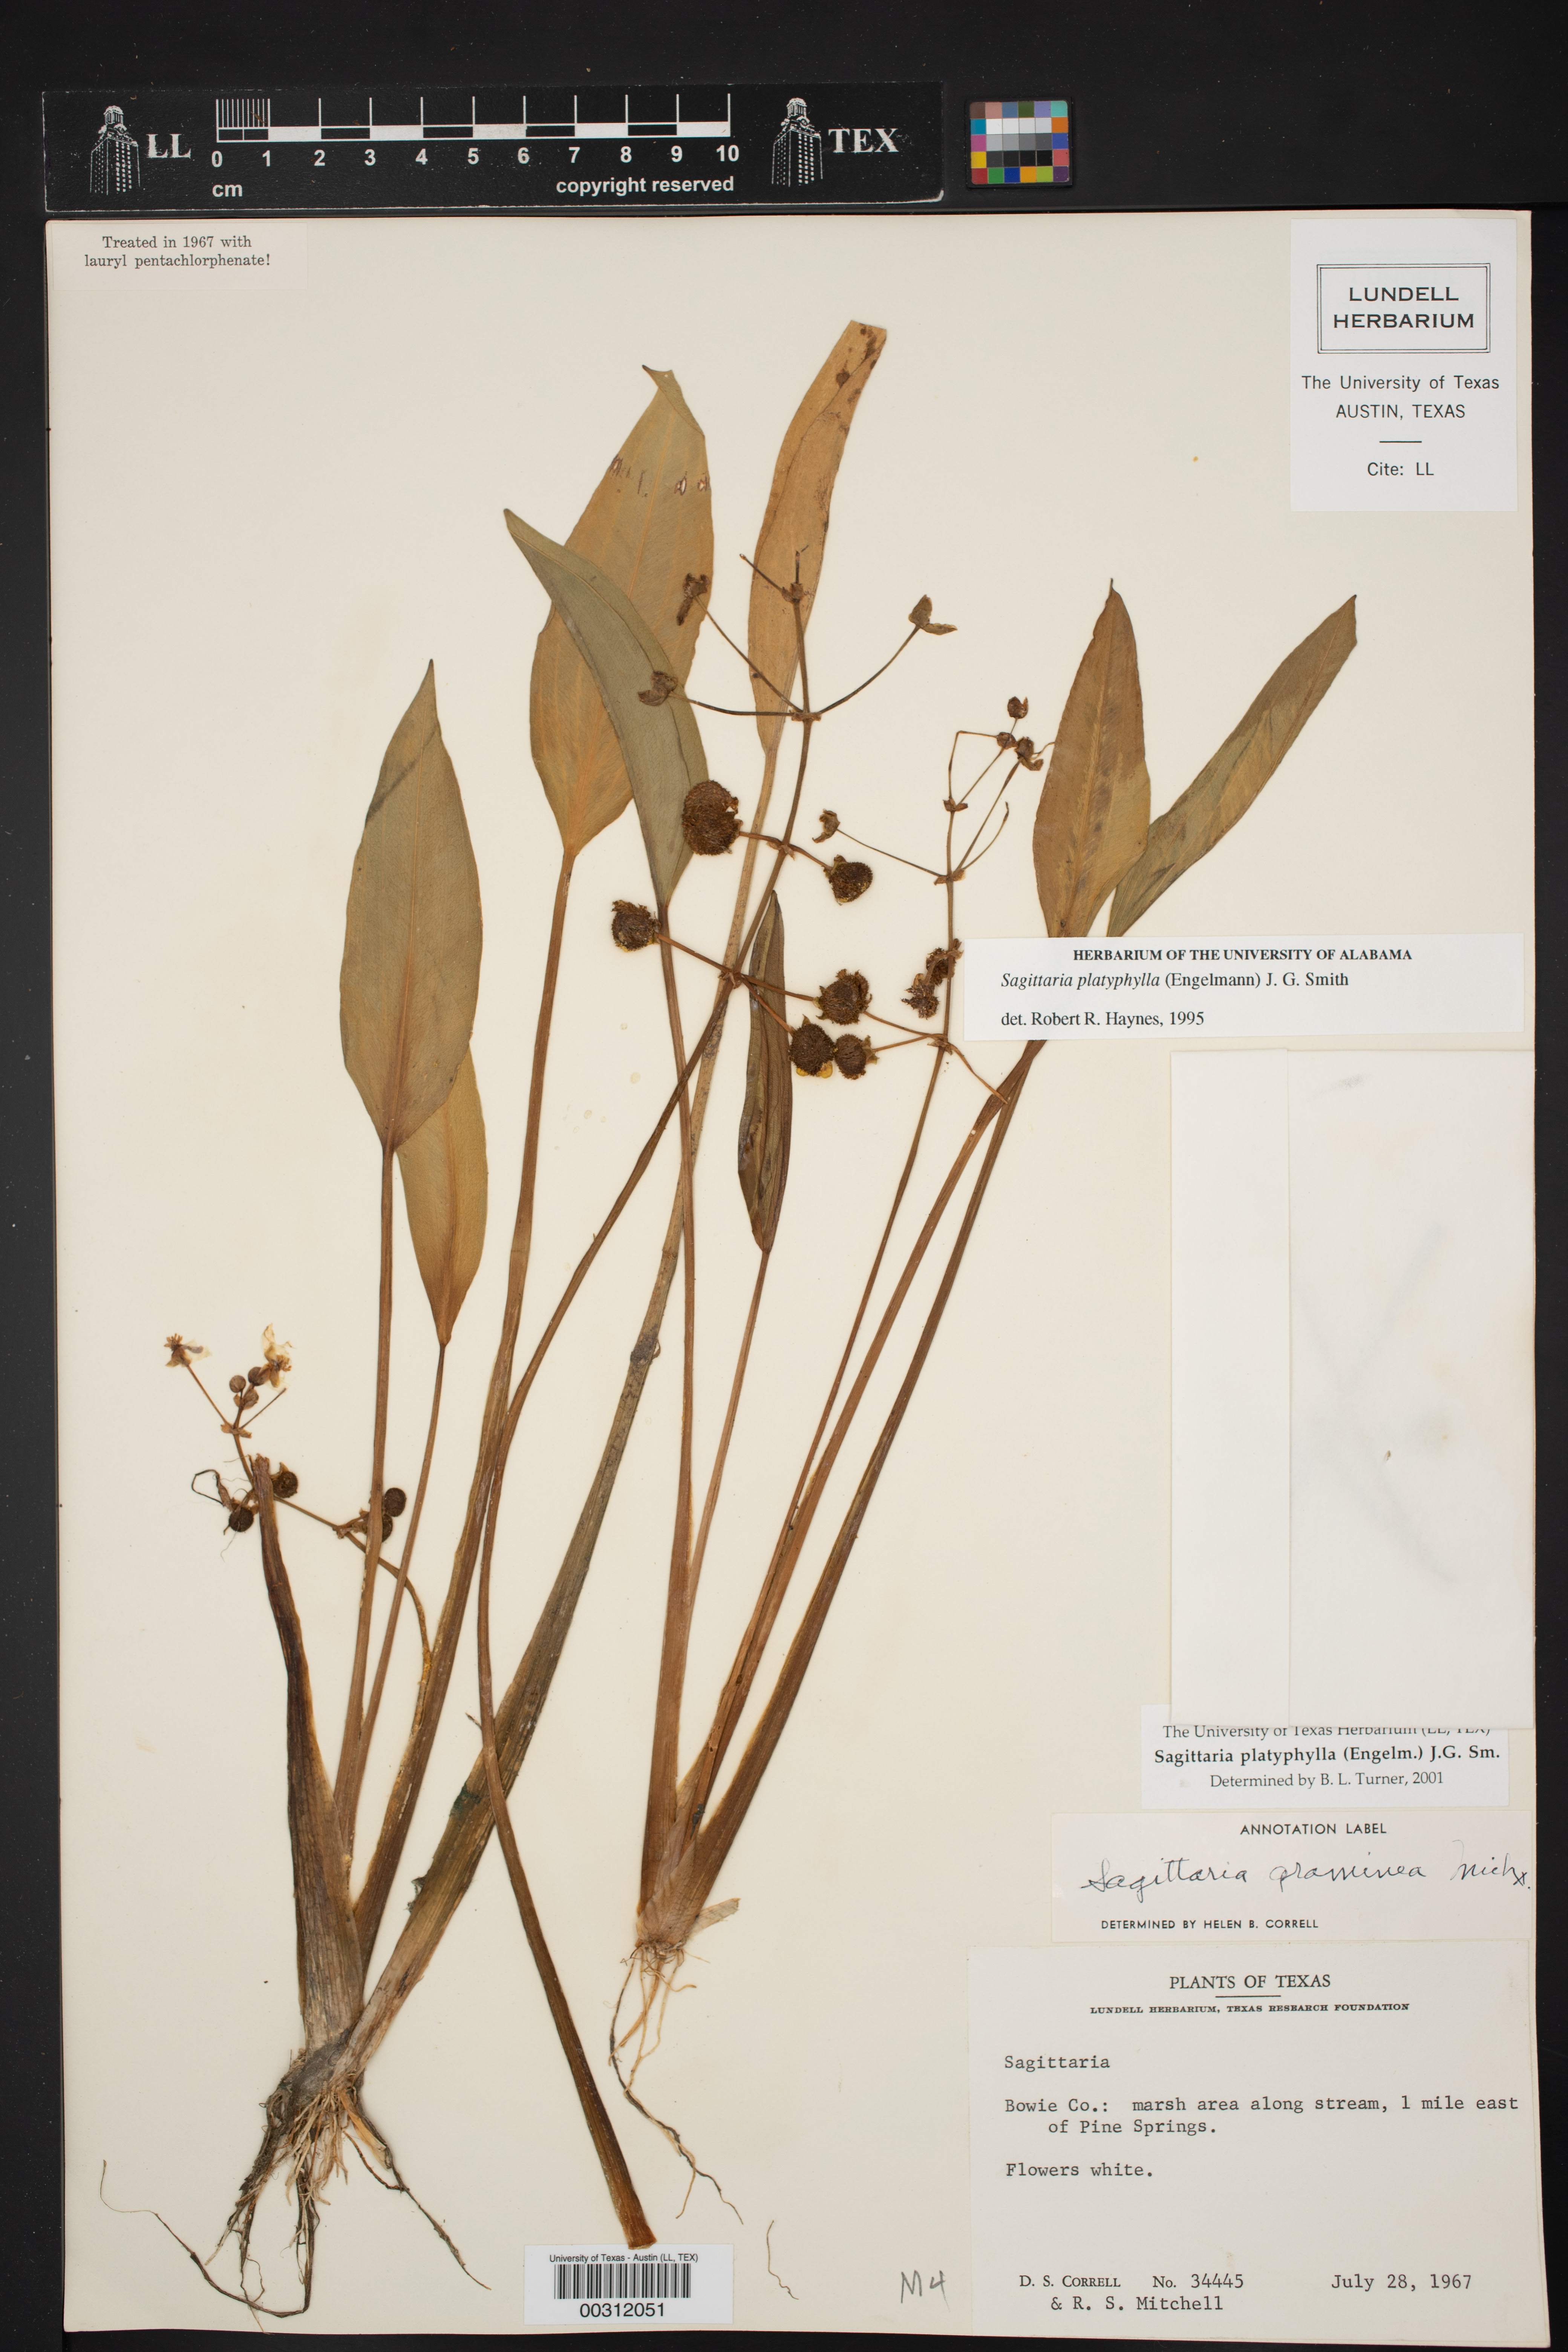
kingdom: Plantae
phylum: Tracheophyta
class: Liliopsida
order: Alismatales
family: Alismataceae
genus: Sagittaria
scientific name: Sagittaria platyphylla
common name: Broad-leaf arrowhead
